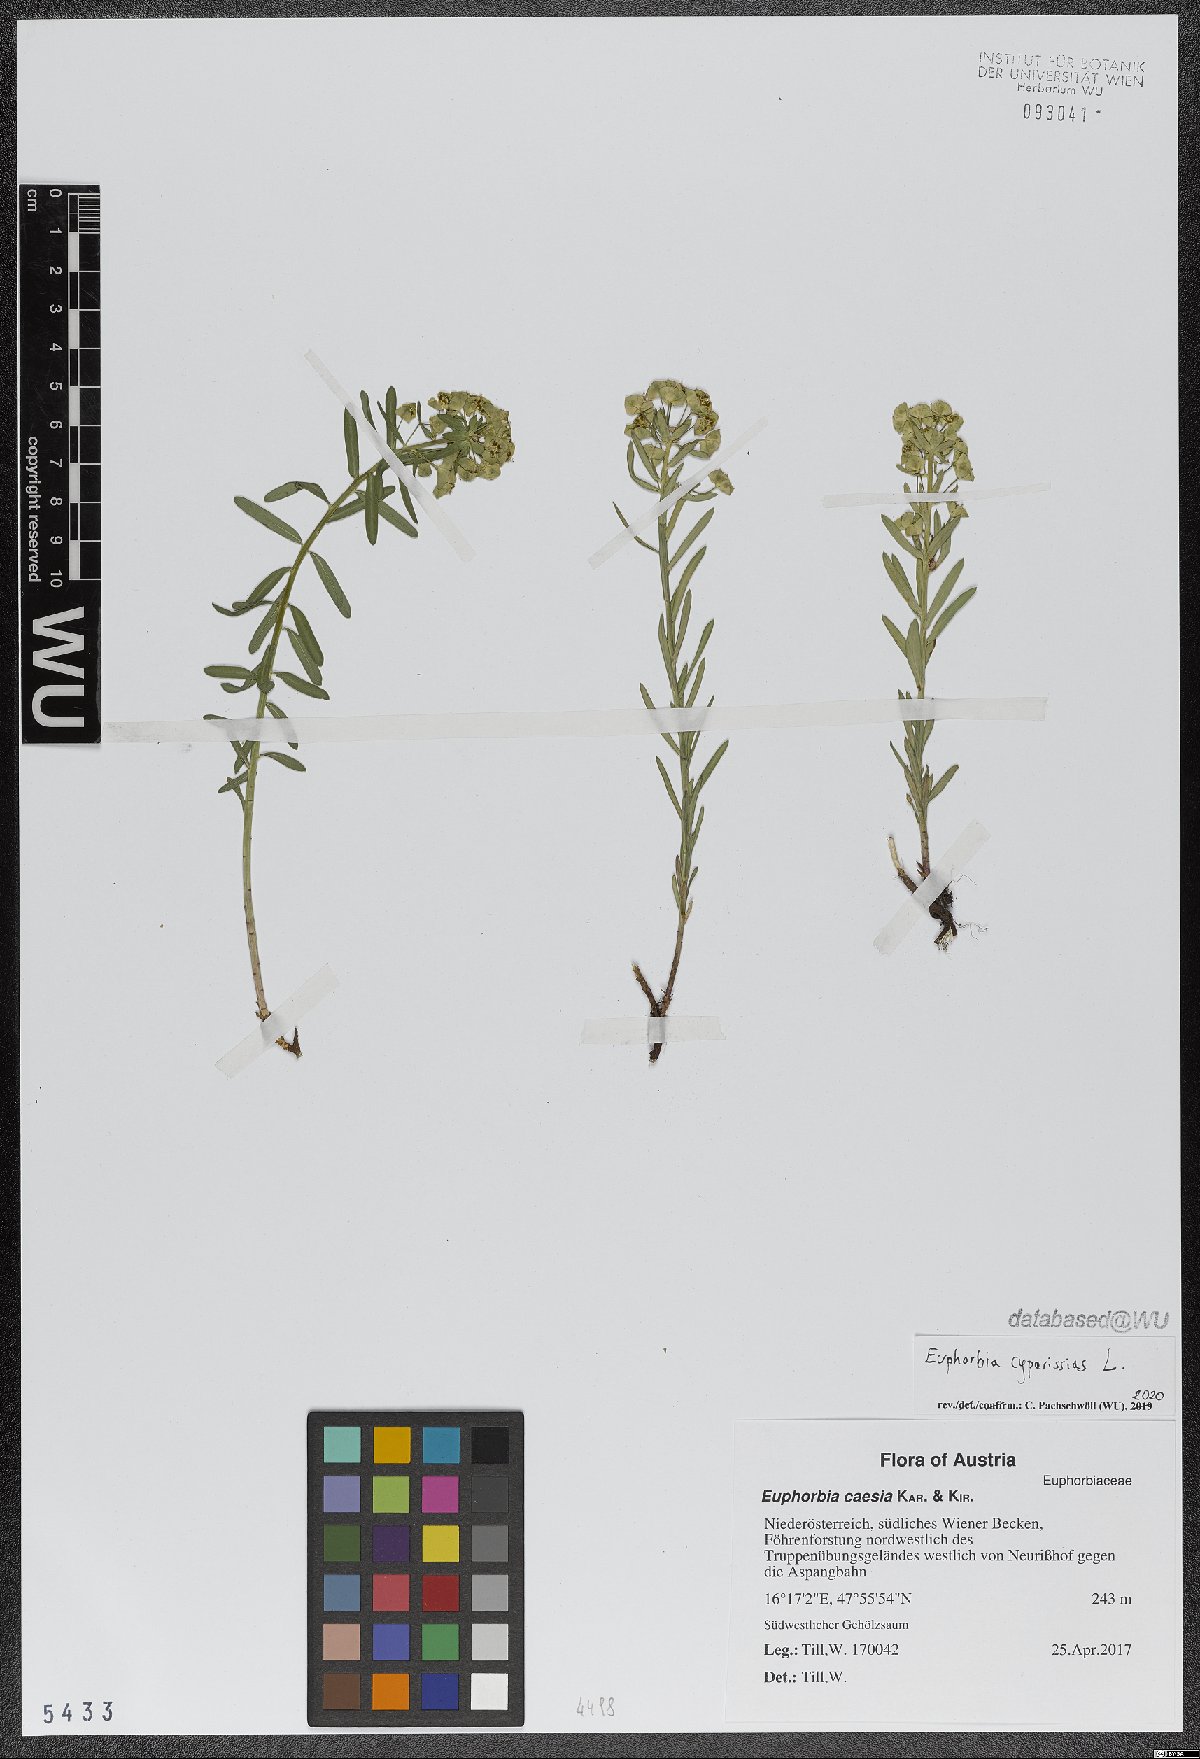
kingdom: Plantae
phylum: Tracheophyta
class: Magnoliopsida
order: Malpighiales
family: Euphorbiaceae
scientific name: Euphorbiaceae
